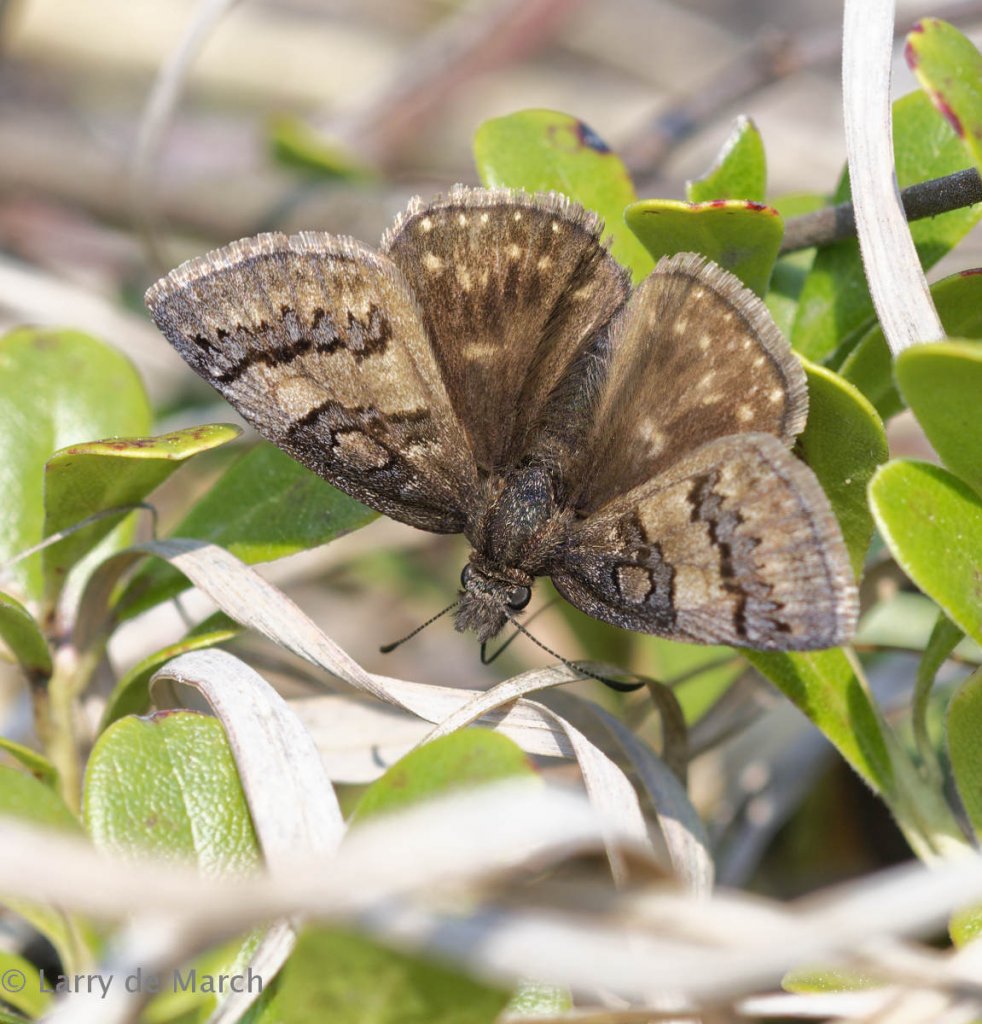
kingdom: Animalia
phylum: Arthropoda
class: Insecta
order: Lepidoptera
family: Hesperiidae
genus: Erynnis
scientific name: Erynnis brizo
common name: Sleepy Duskywing
